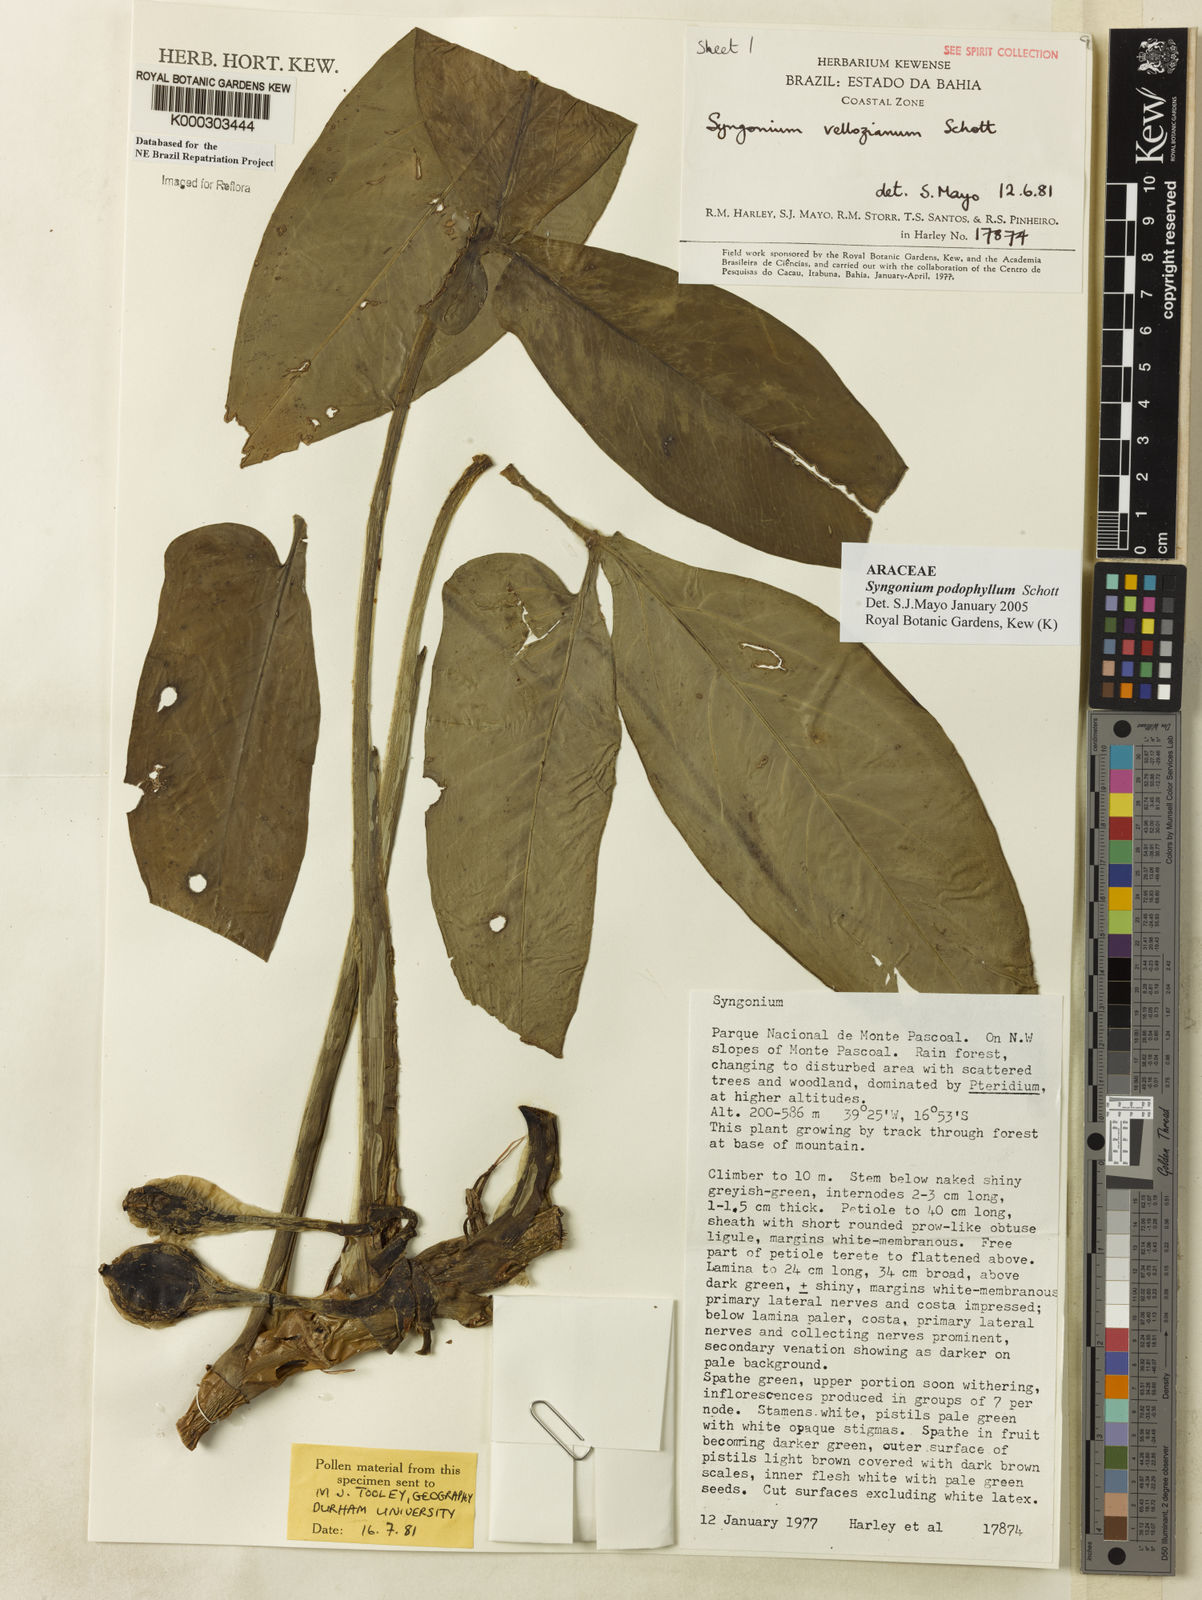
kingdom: Plantae
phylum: Tracheophyta
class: Liliopsida
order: Alismatales
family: Araceae
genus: Syngonium
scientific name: Syngonium podophyllum
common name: American evergreen
